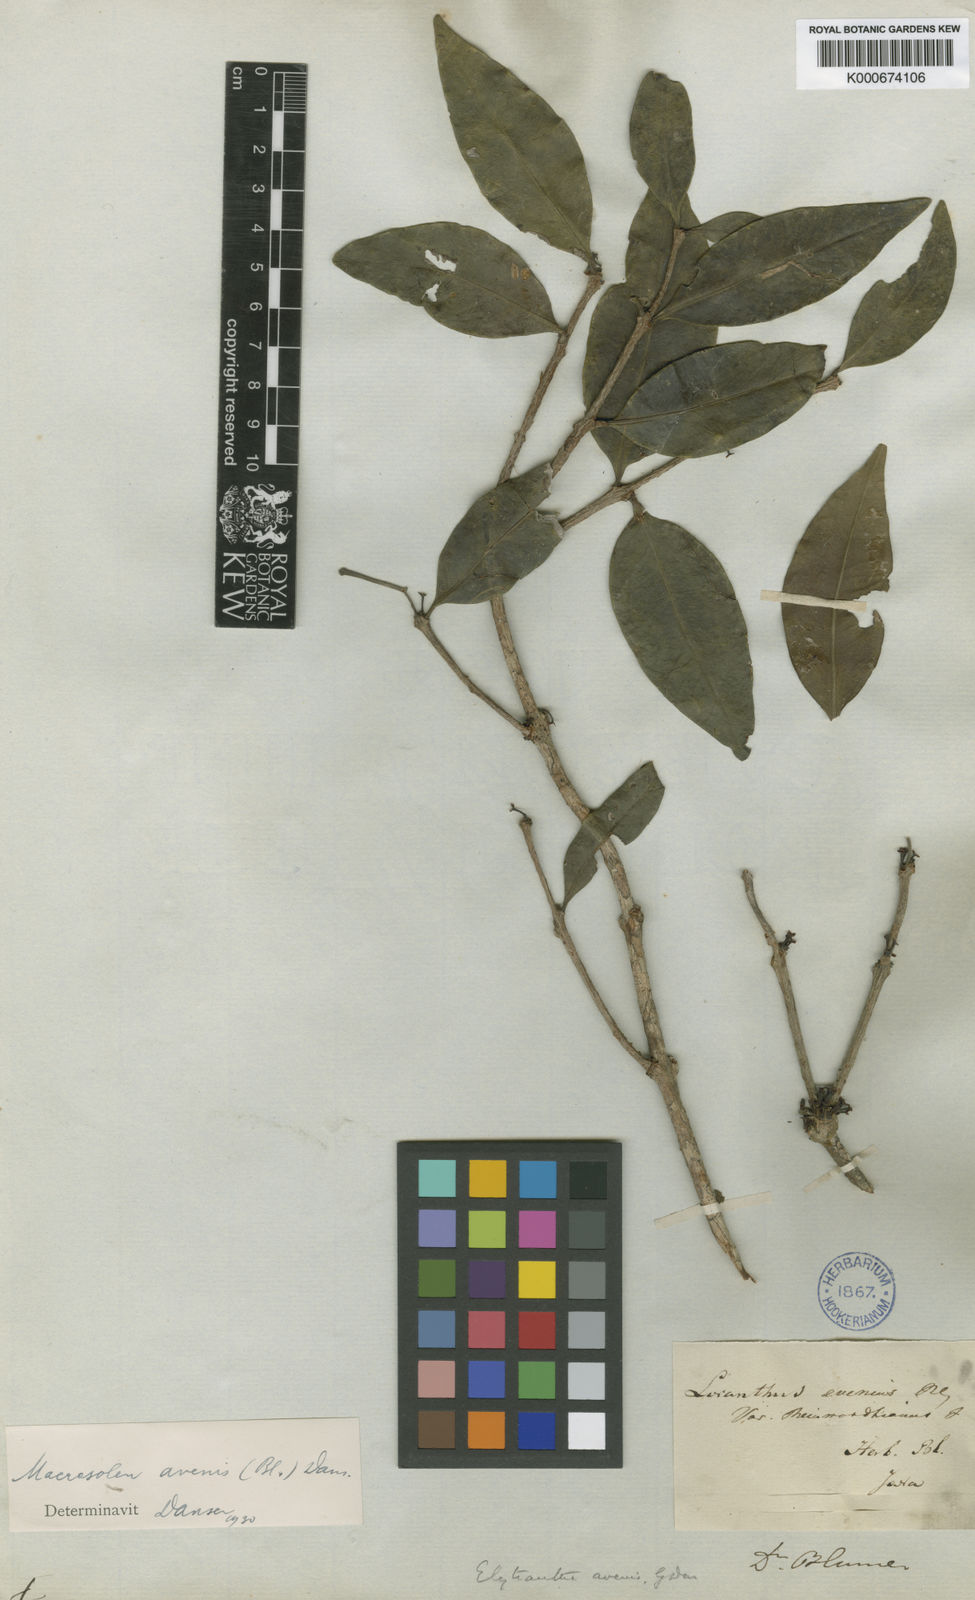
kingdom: Plantae
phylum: Tracheophyta
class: Magnoliopsida
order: Santalales
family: Loranthaceae
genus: Macrosolen
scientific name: Macrosolen avenis
